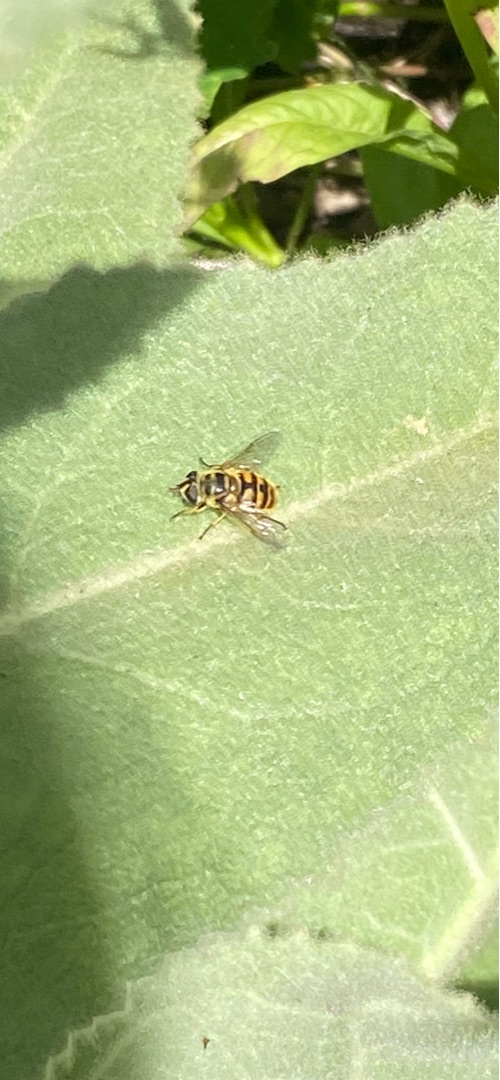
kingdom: Animalia
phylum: Arthropoda
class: Insecta
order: Diptera
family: Syrphidae
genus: Myathropa
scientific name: Myathropa florea
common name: Dødningehoved-svirreflue
